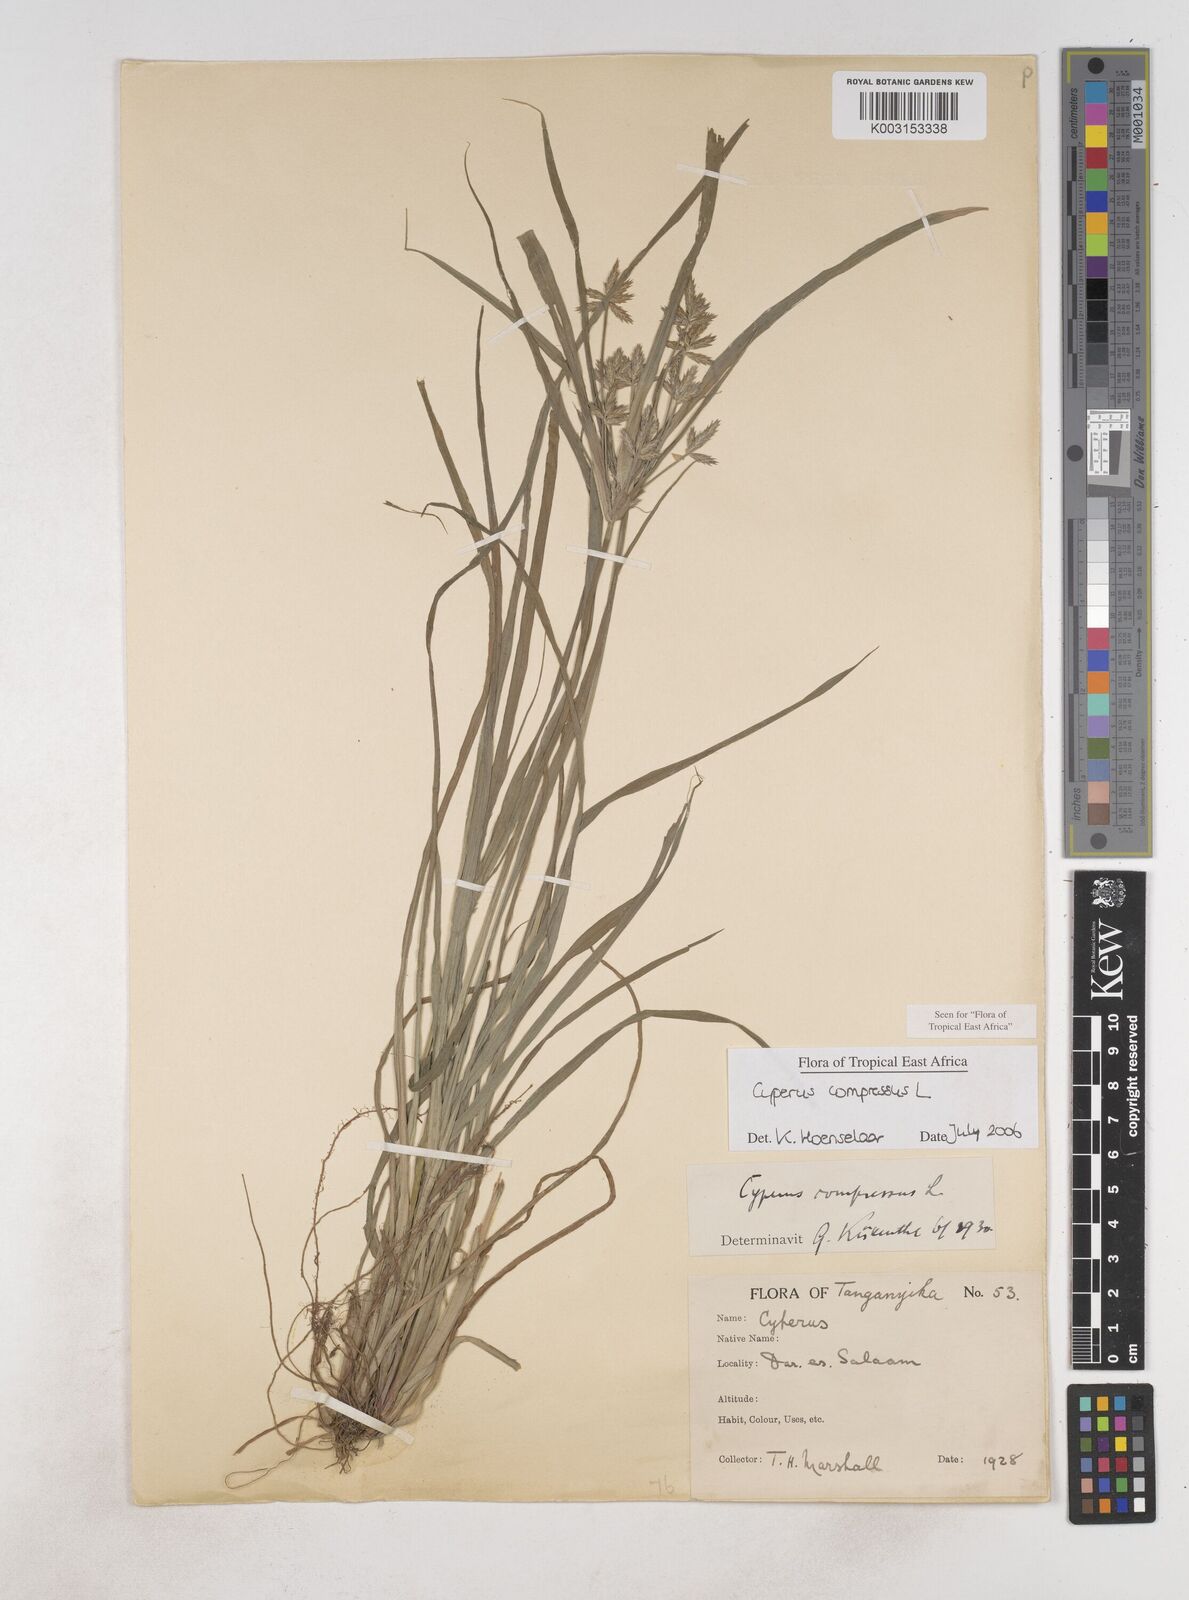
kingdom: Plantae
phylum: Tracheophyta
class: Liliopsida
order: Poales
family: Cyperaceae
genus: Cyperus
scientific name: Cyperus compressus
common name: Poorland flatsedge
